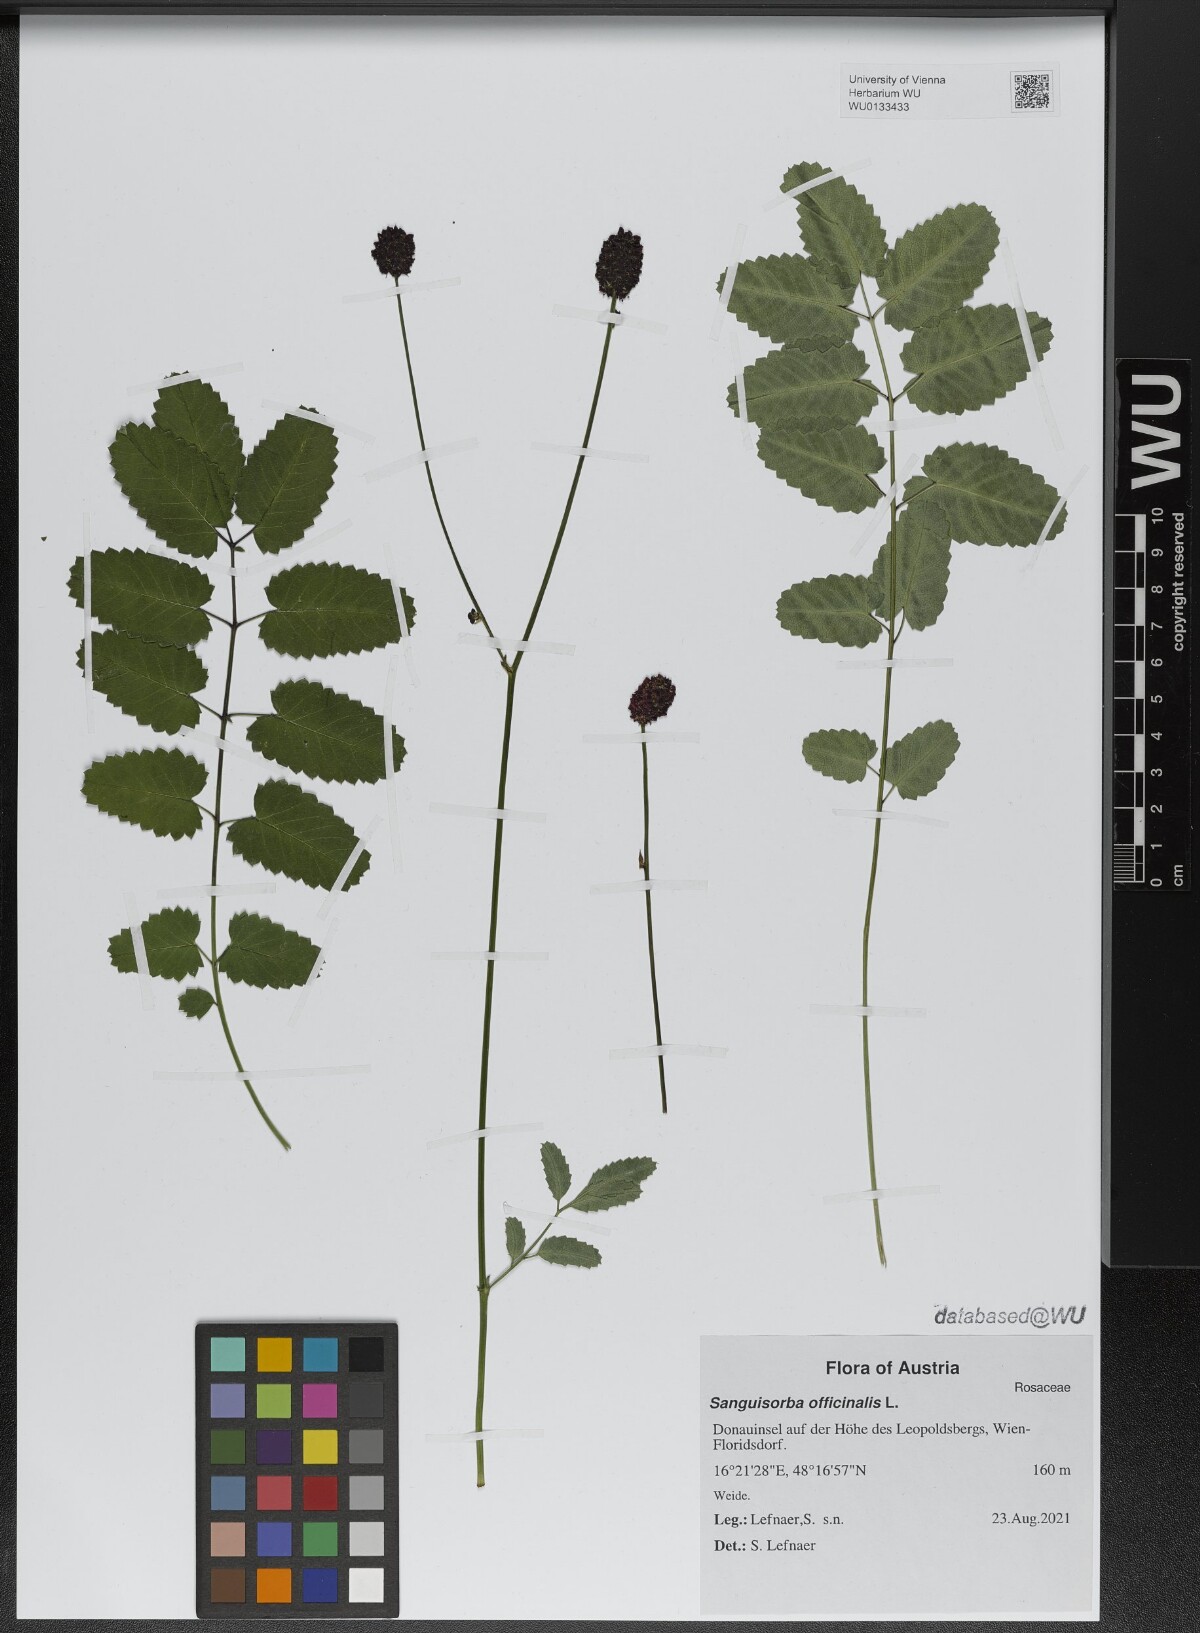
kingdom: Plantae
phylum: Tracheophyta
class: Magnoliopsida
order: Rosales
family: Rosaceae
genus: Sanguisorba
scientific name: Sanguisorba officinalis
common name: Great burnet
